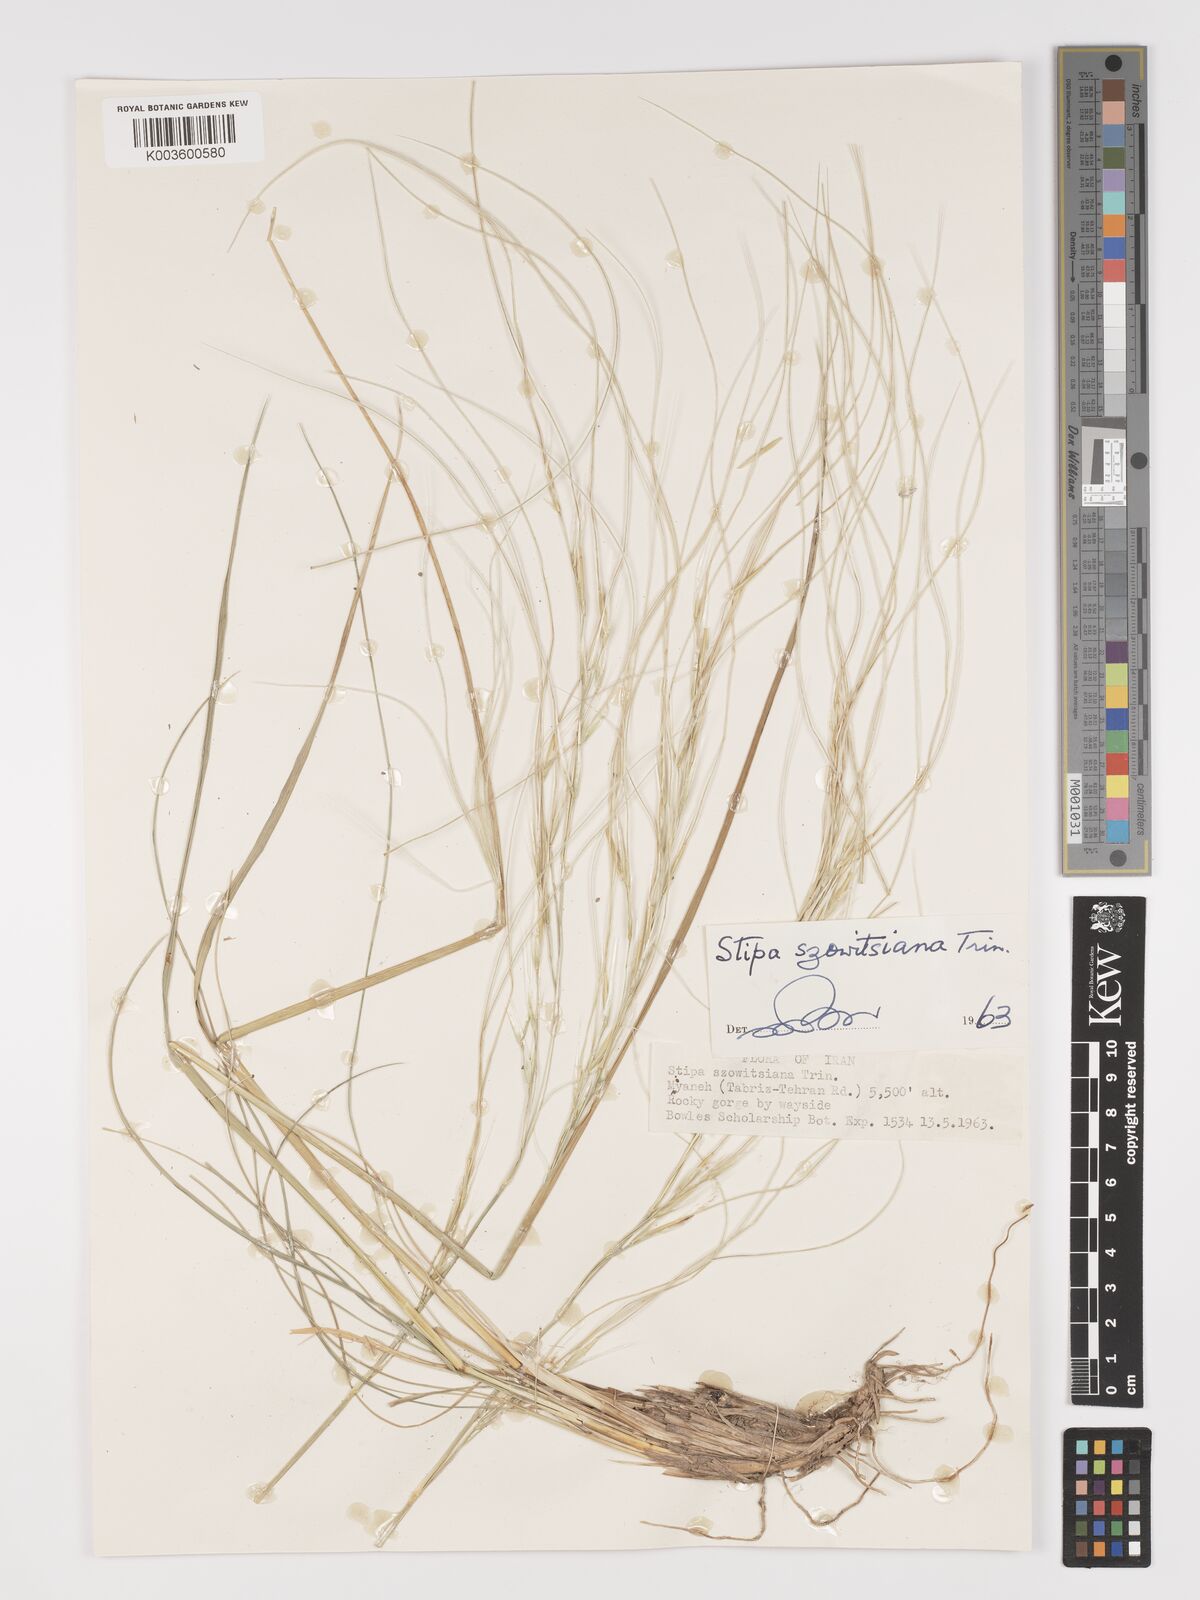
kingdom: Plantae
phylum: Tracheophyta
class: Liliopsida
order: Poales
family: Poaceae
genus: Stipa
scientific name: Stipa barbata
